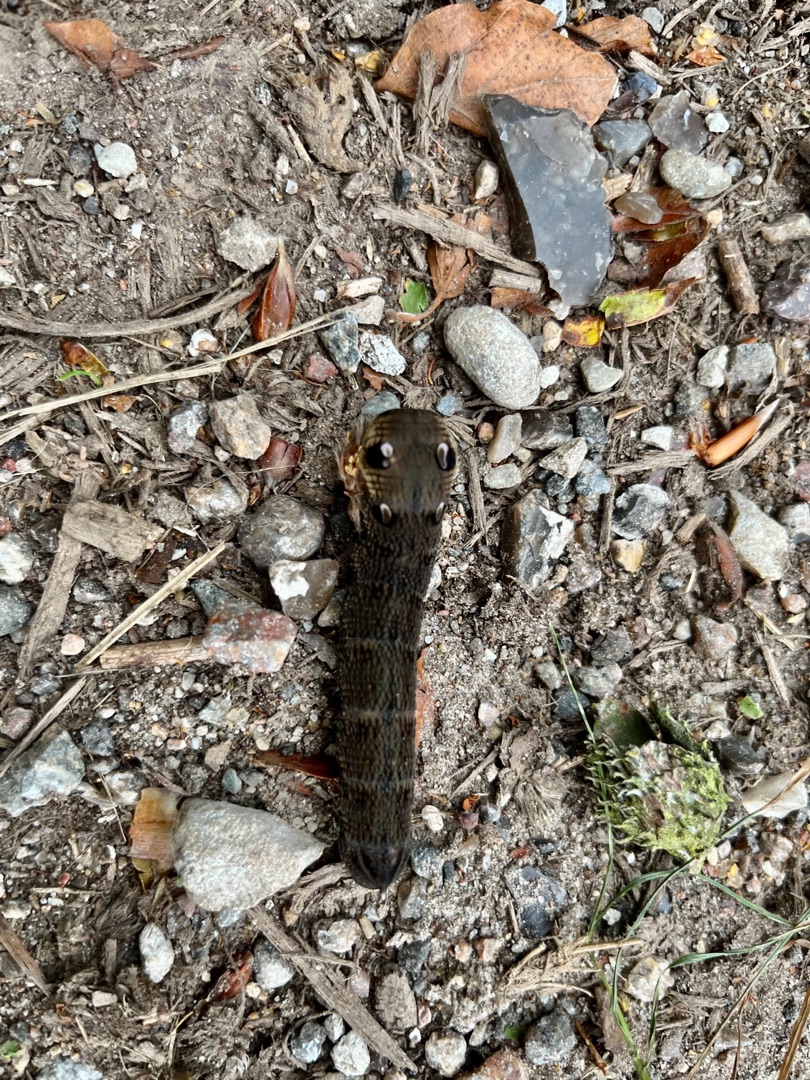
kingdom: Animalia
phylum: Arthropoda
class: Insecta
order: Lepidoptera
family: Sphingidae
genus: Deilephila
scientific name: Deilephila elpenor
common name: Dueurtsværmer
